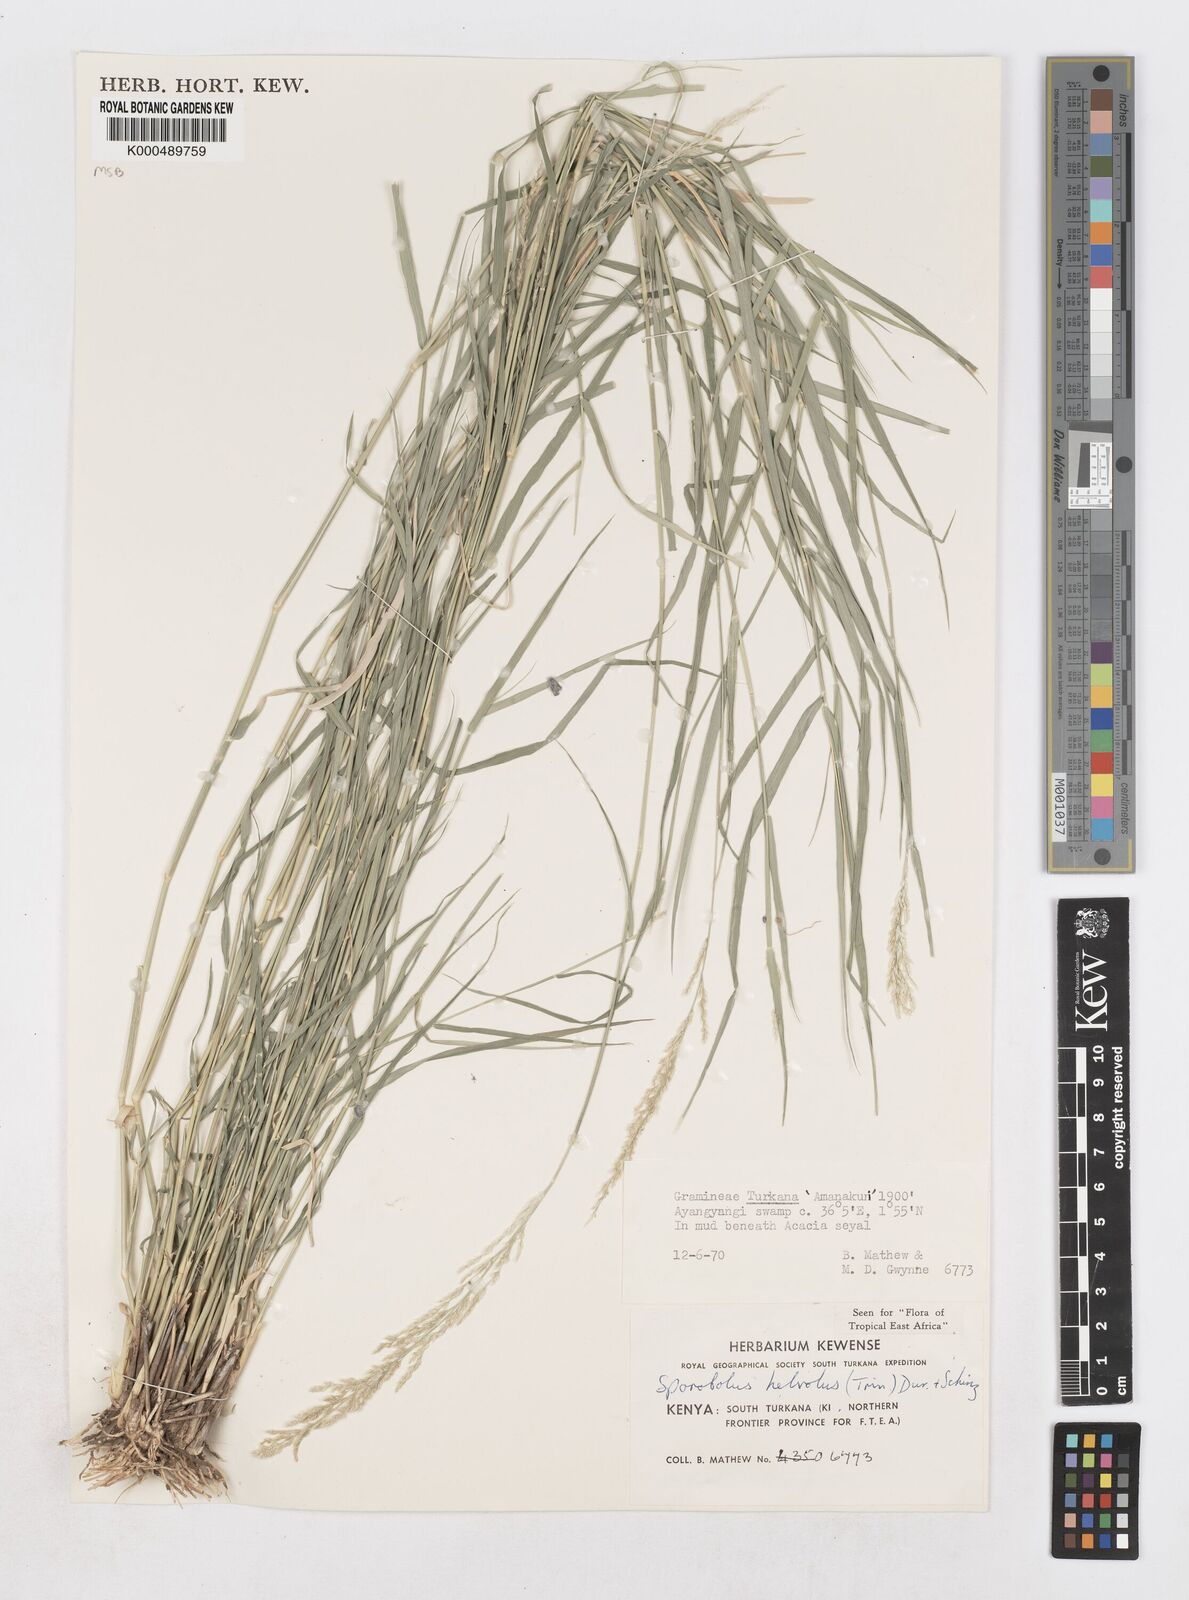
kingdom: Plantae
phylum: Tracheophyta
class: Liliopsida
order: Poales
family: Poaceae
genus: Sporobolus
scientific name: Sporobolus helvolus
